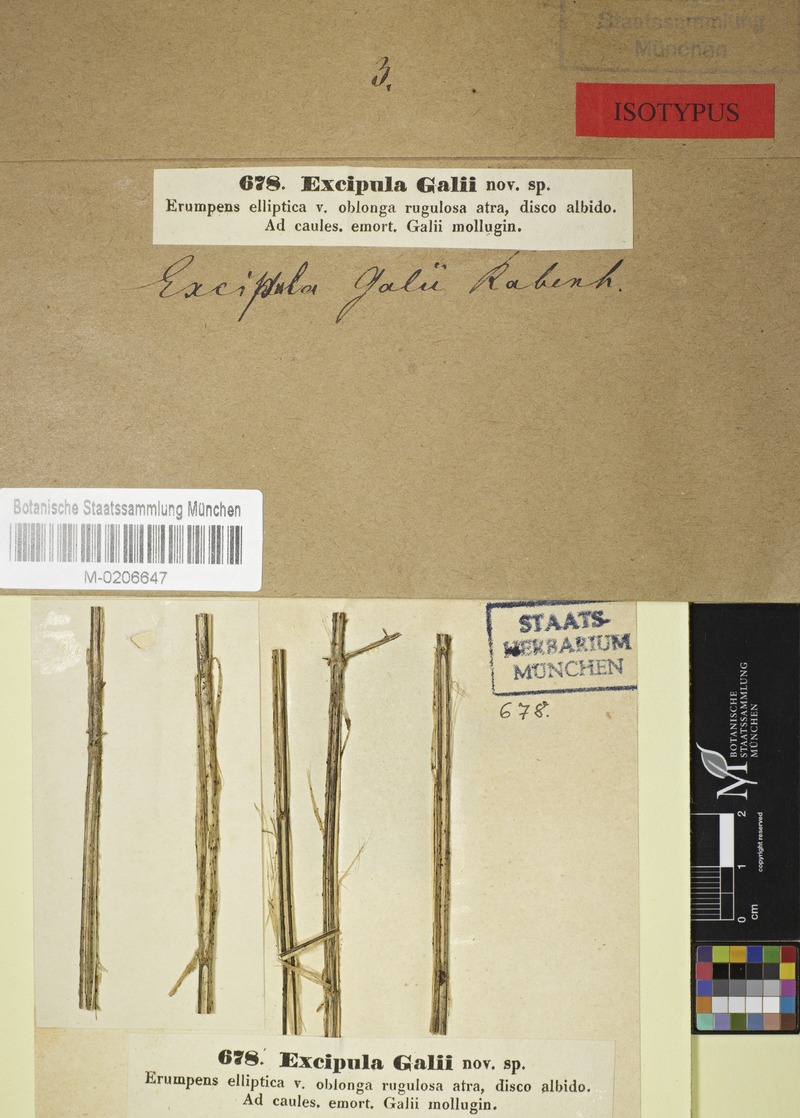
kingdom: Fungi
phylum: Ascomycota
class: Leotiomycetes
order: Helotiales
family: Drepanopezizaceae
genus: Ephelina
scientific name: Ephelina galii
